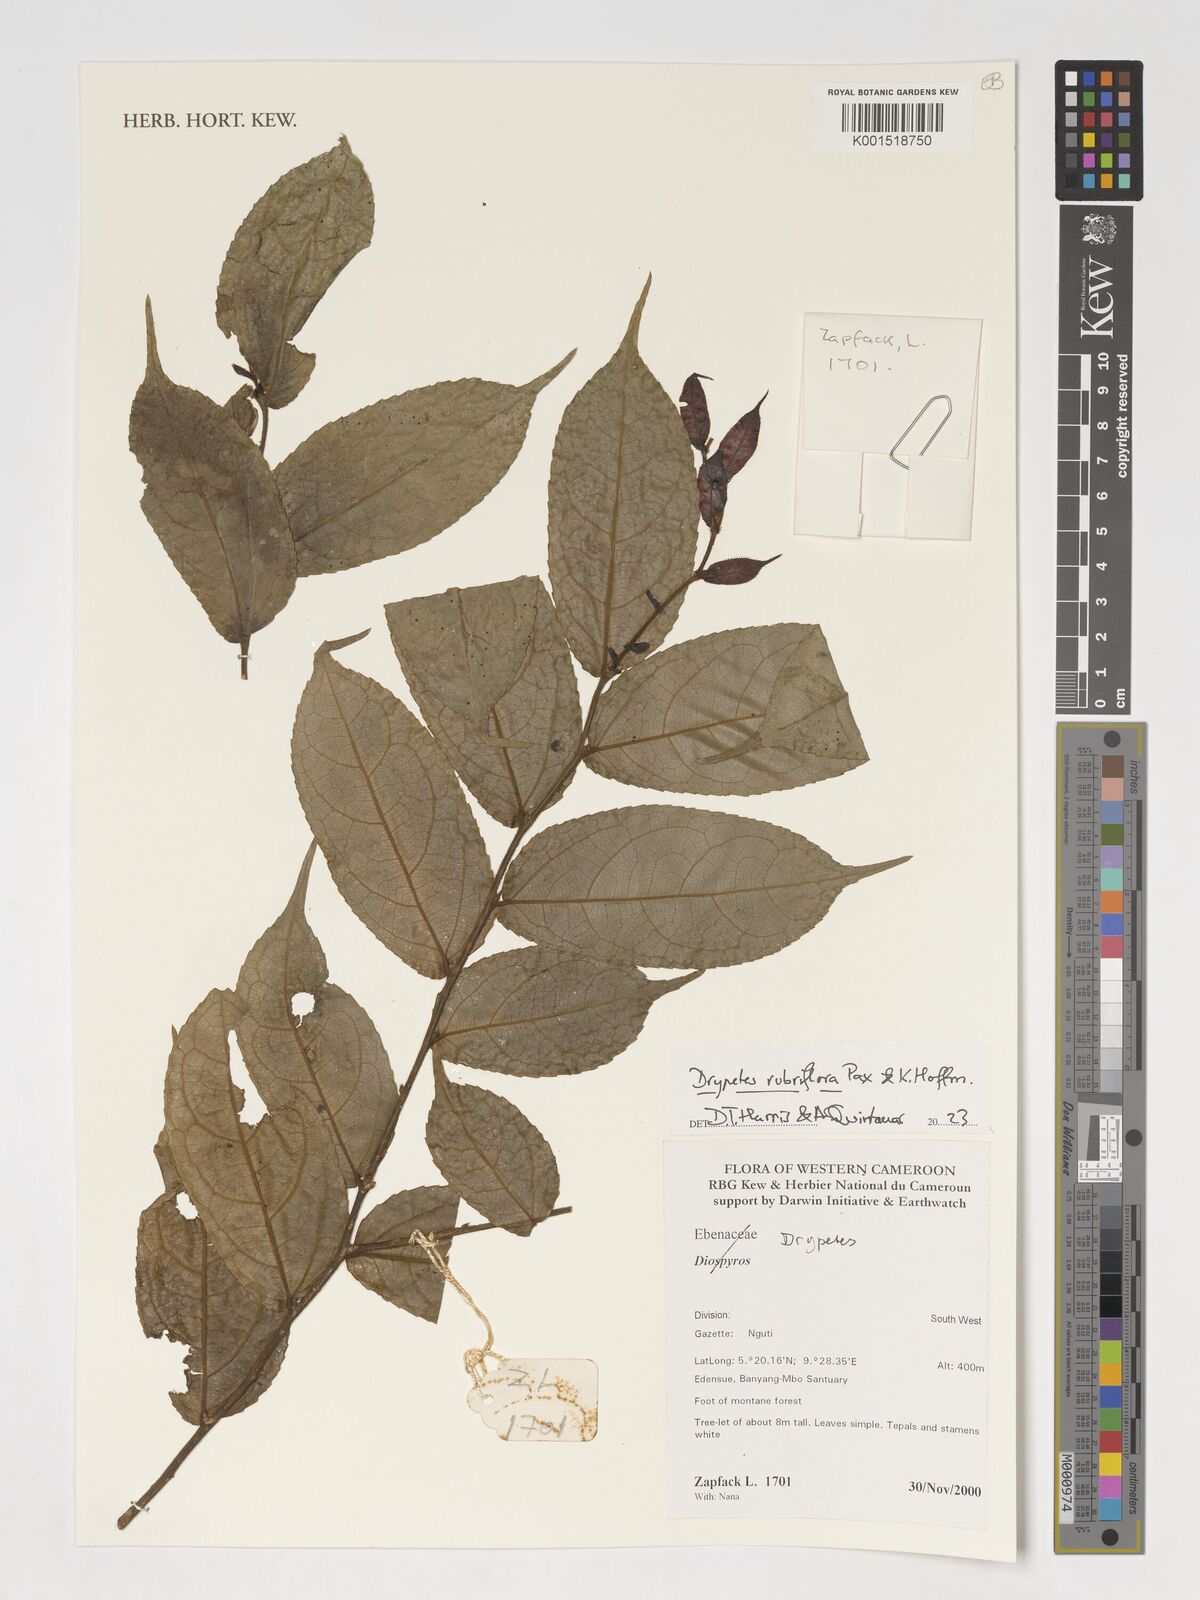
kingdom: Plantae
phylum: Tracheophyta
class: Magnoliopsida
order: Malpighiales
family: Putranjivaceae
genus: Drypetes
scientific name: Drypetes rubriflora
